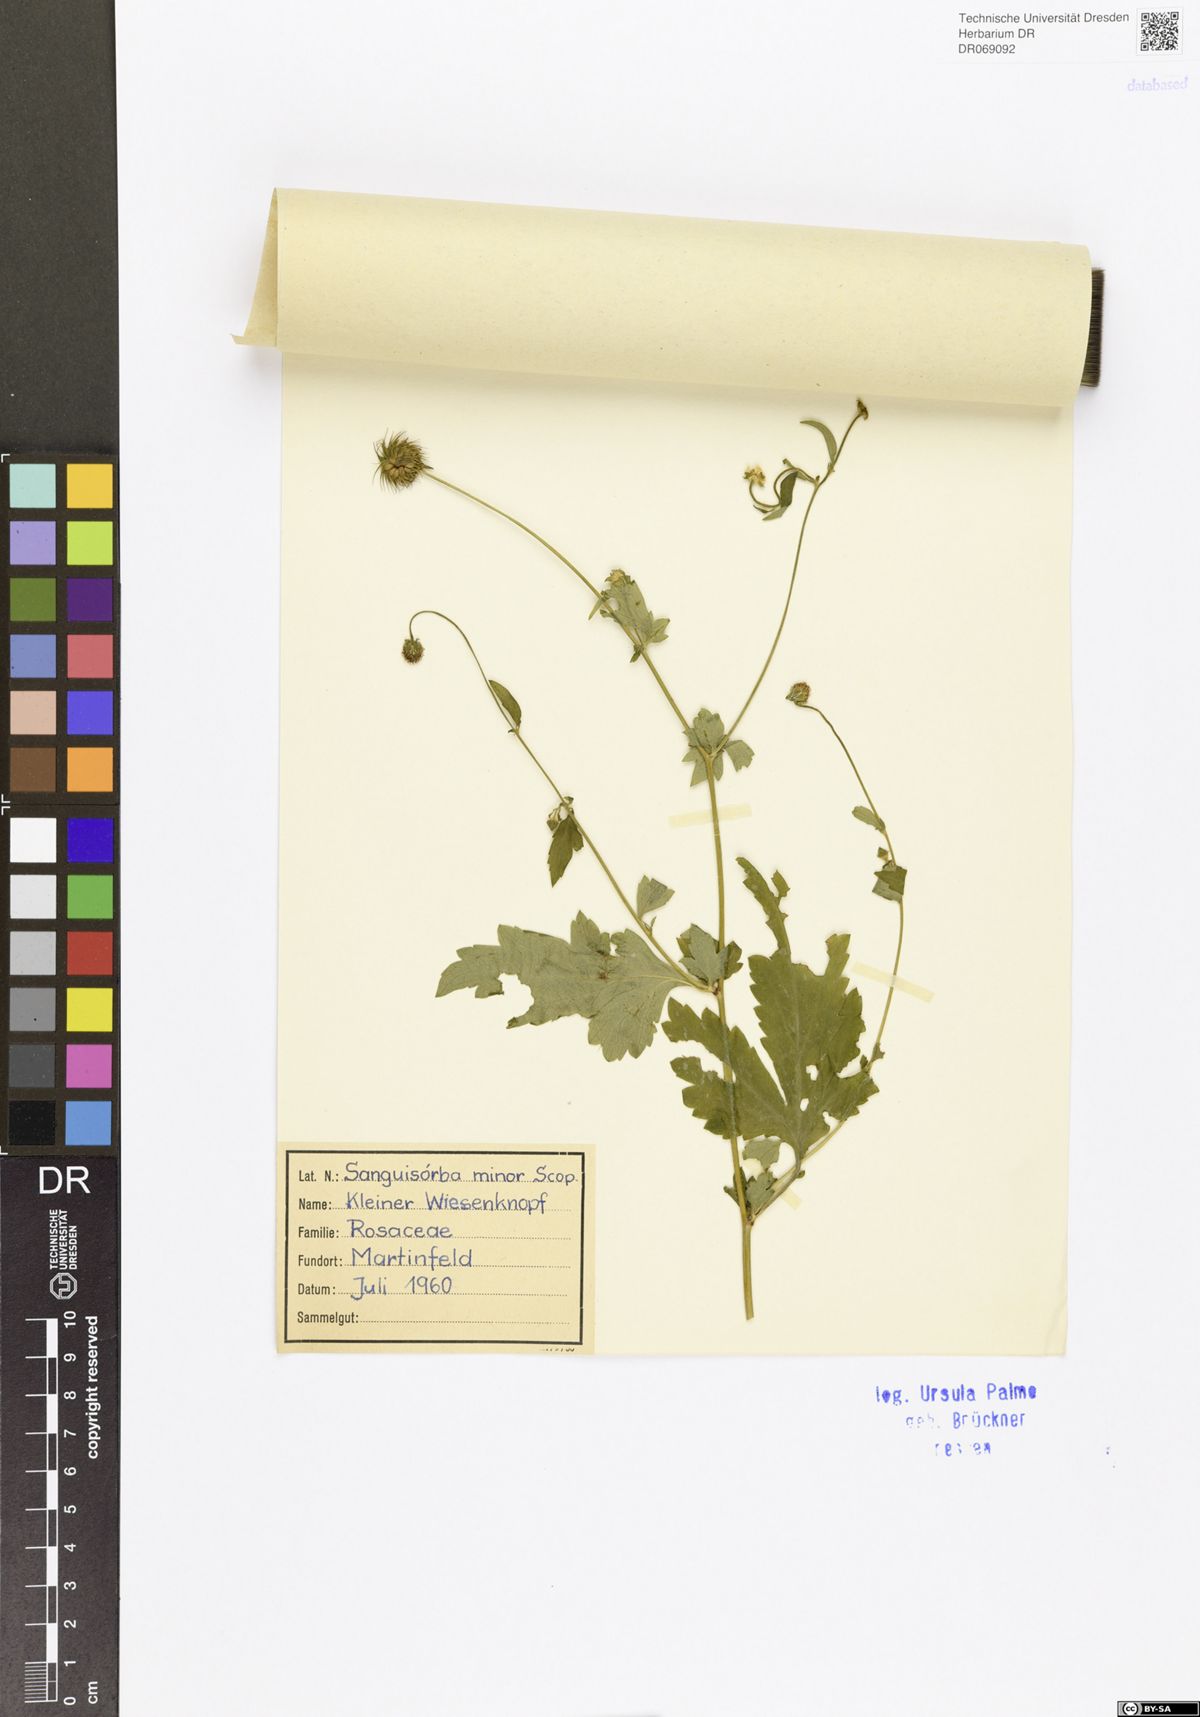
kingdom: Plantae
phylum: Tracheophyta
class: Magnoliopsida
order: Rosales
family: Rosaceae
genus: Poterium
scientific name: Poterium sanguisorba
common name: Salad burnet
